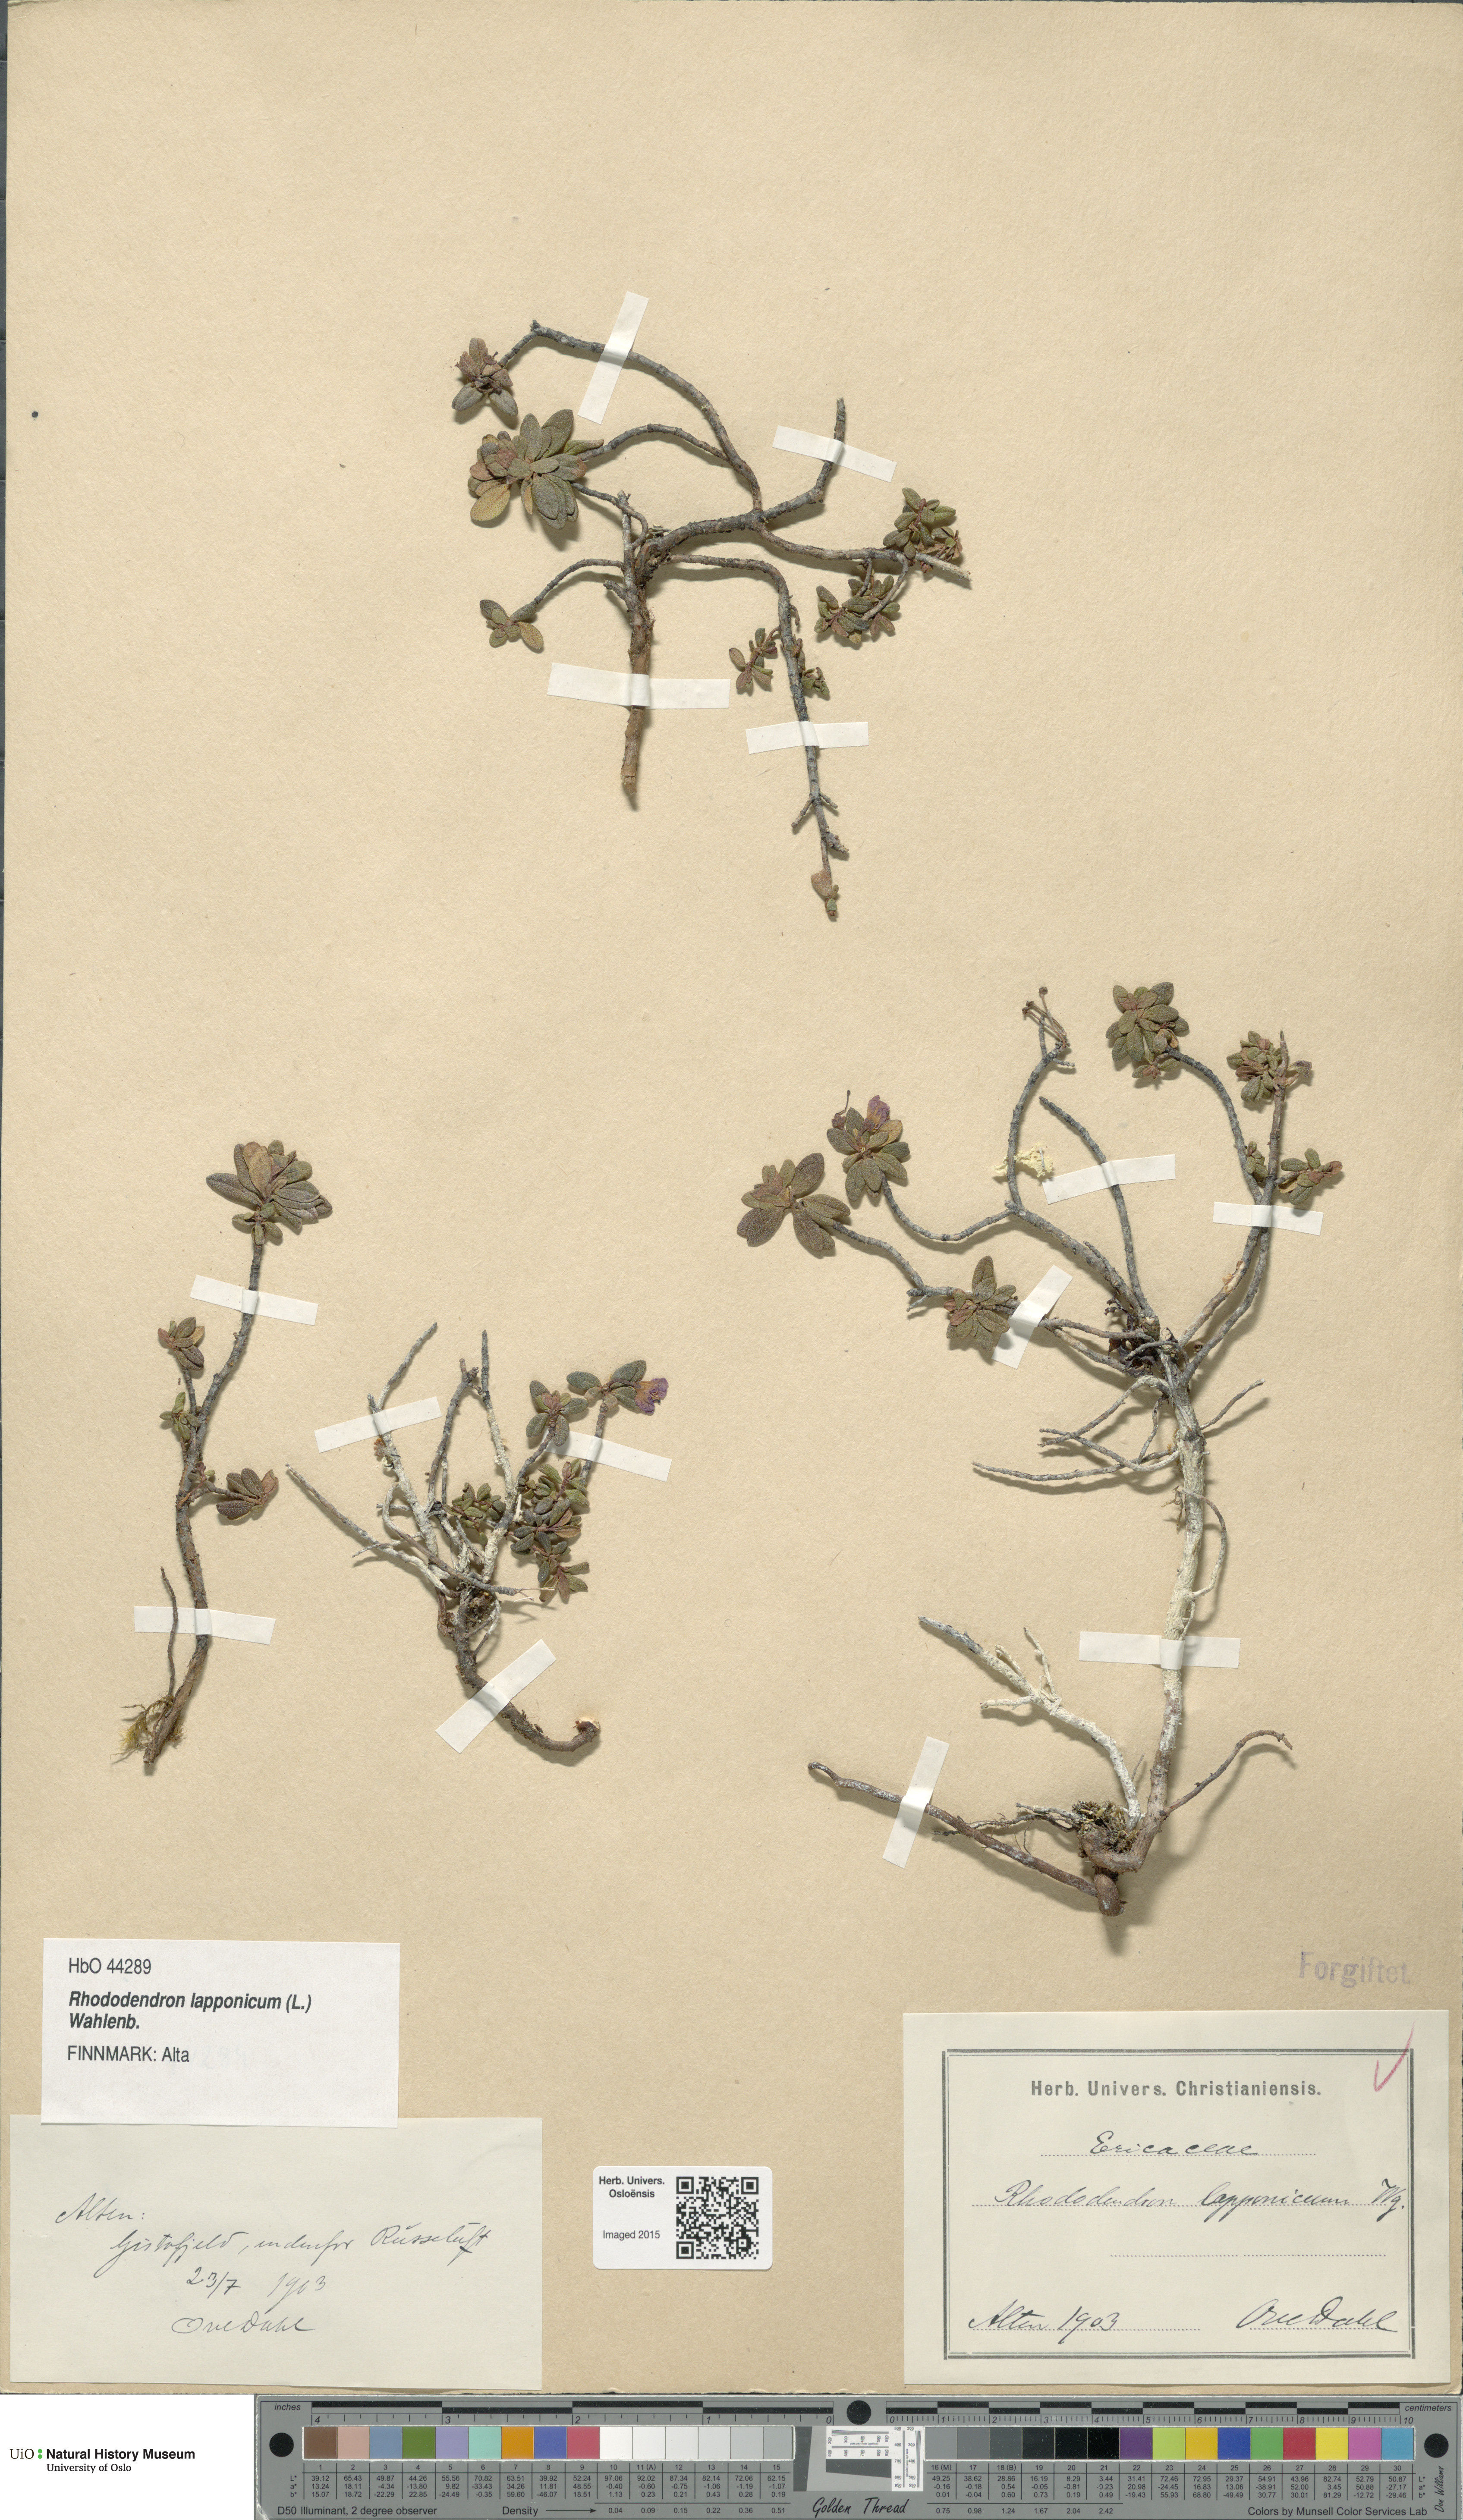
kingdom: Plantae
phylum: Tracheophyta
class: Magnoliopsida
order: Ericales
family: Ericaceae
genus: Rhododendron
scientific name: Rhododendron lapponicum
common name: Lapland rhododendron
